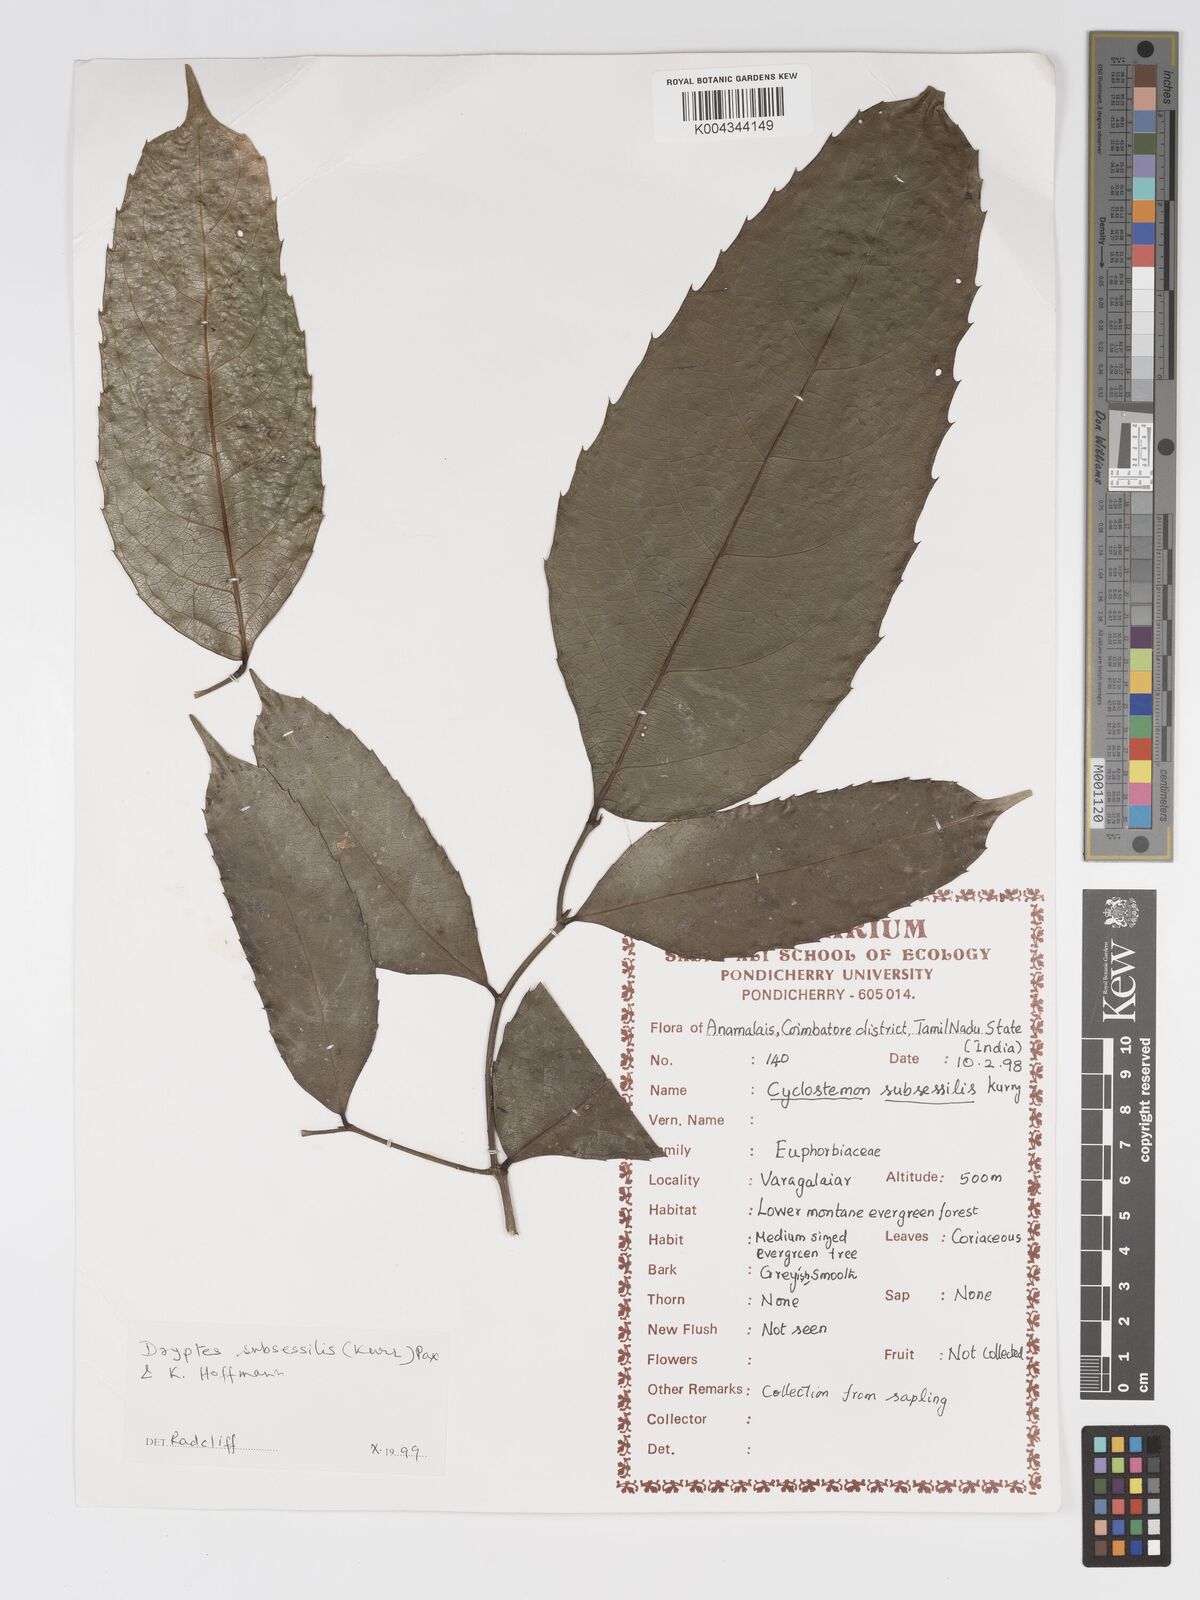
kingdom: Plantae
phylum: Tracheophyta
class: Magnoliopsida
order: Malpighiales
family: Putranjivaceae
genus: Drypetes
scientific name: Drypetes subsessilis
